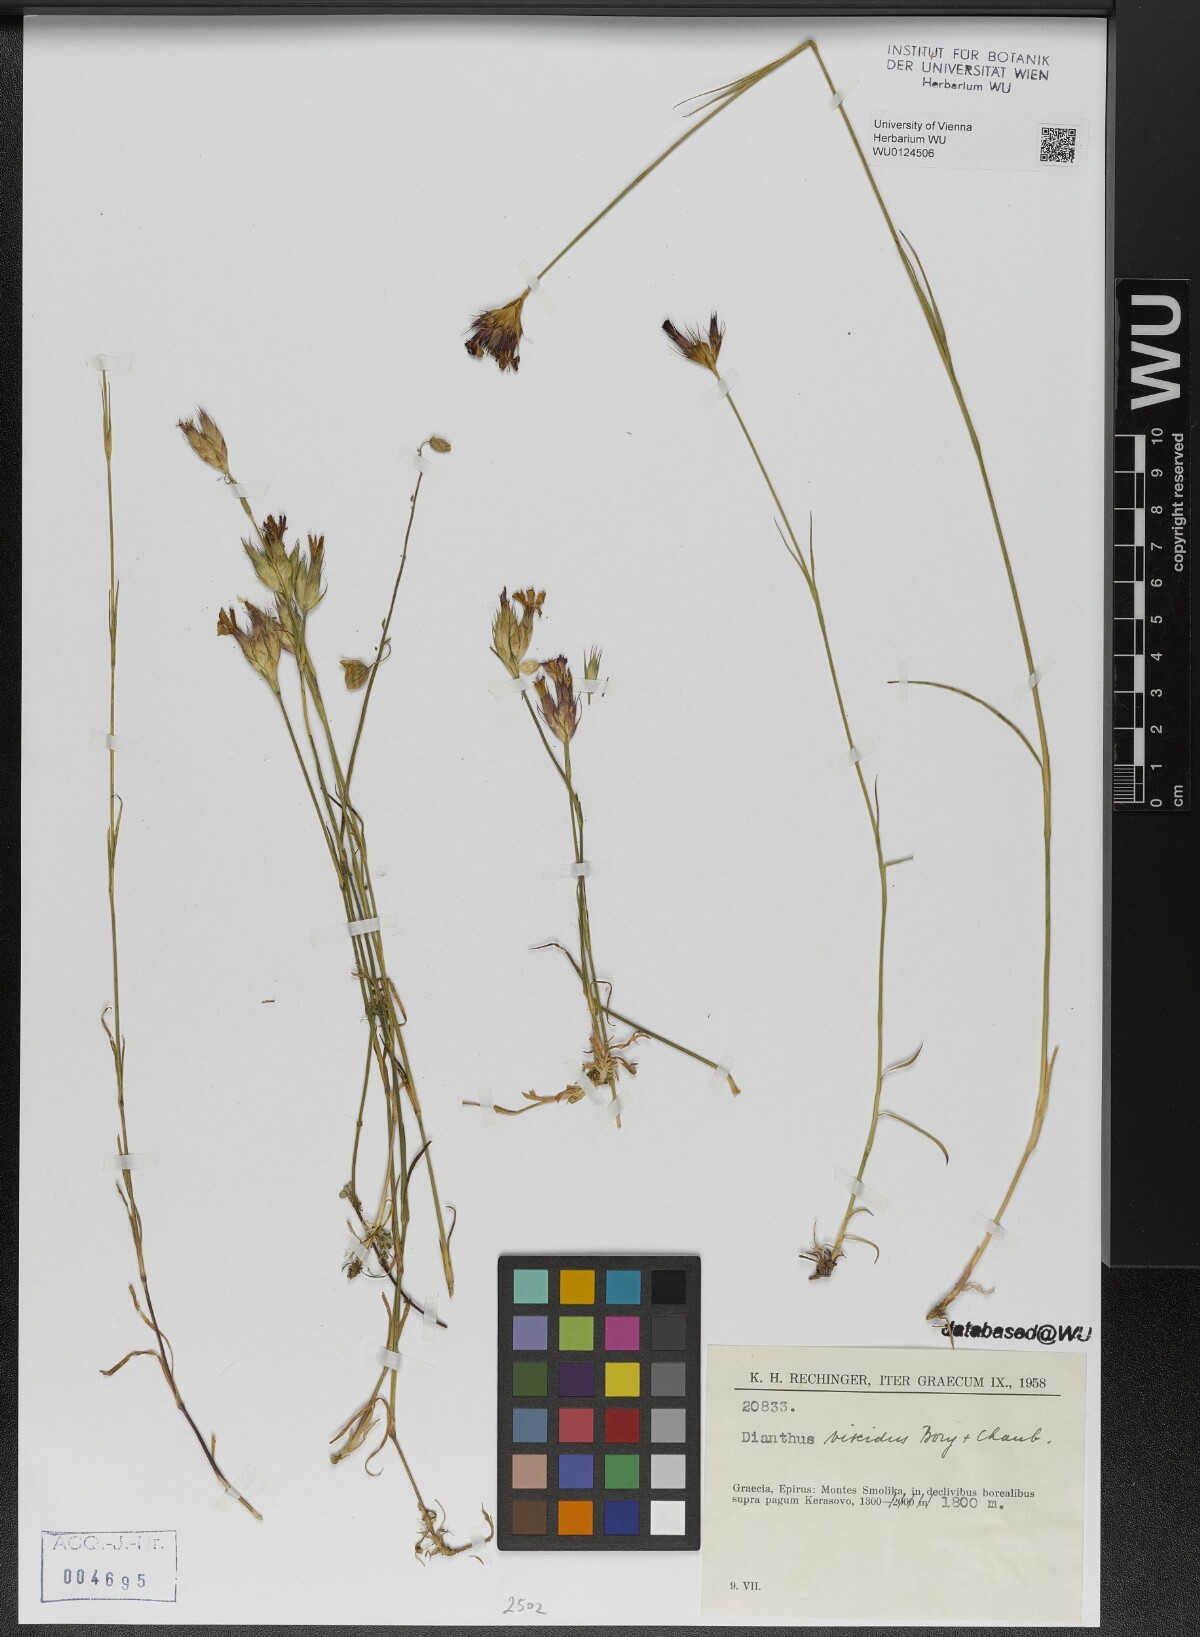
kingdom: Plantae
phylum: Tracheophyta
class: Magnoliopsida
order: Caryophyllales
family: Caryophyllaceae
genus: Dianthus
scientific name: Dianthus viscidus
